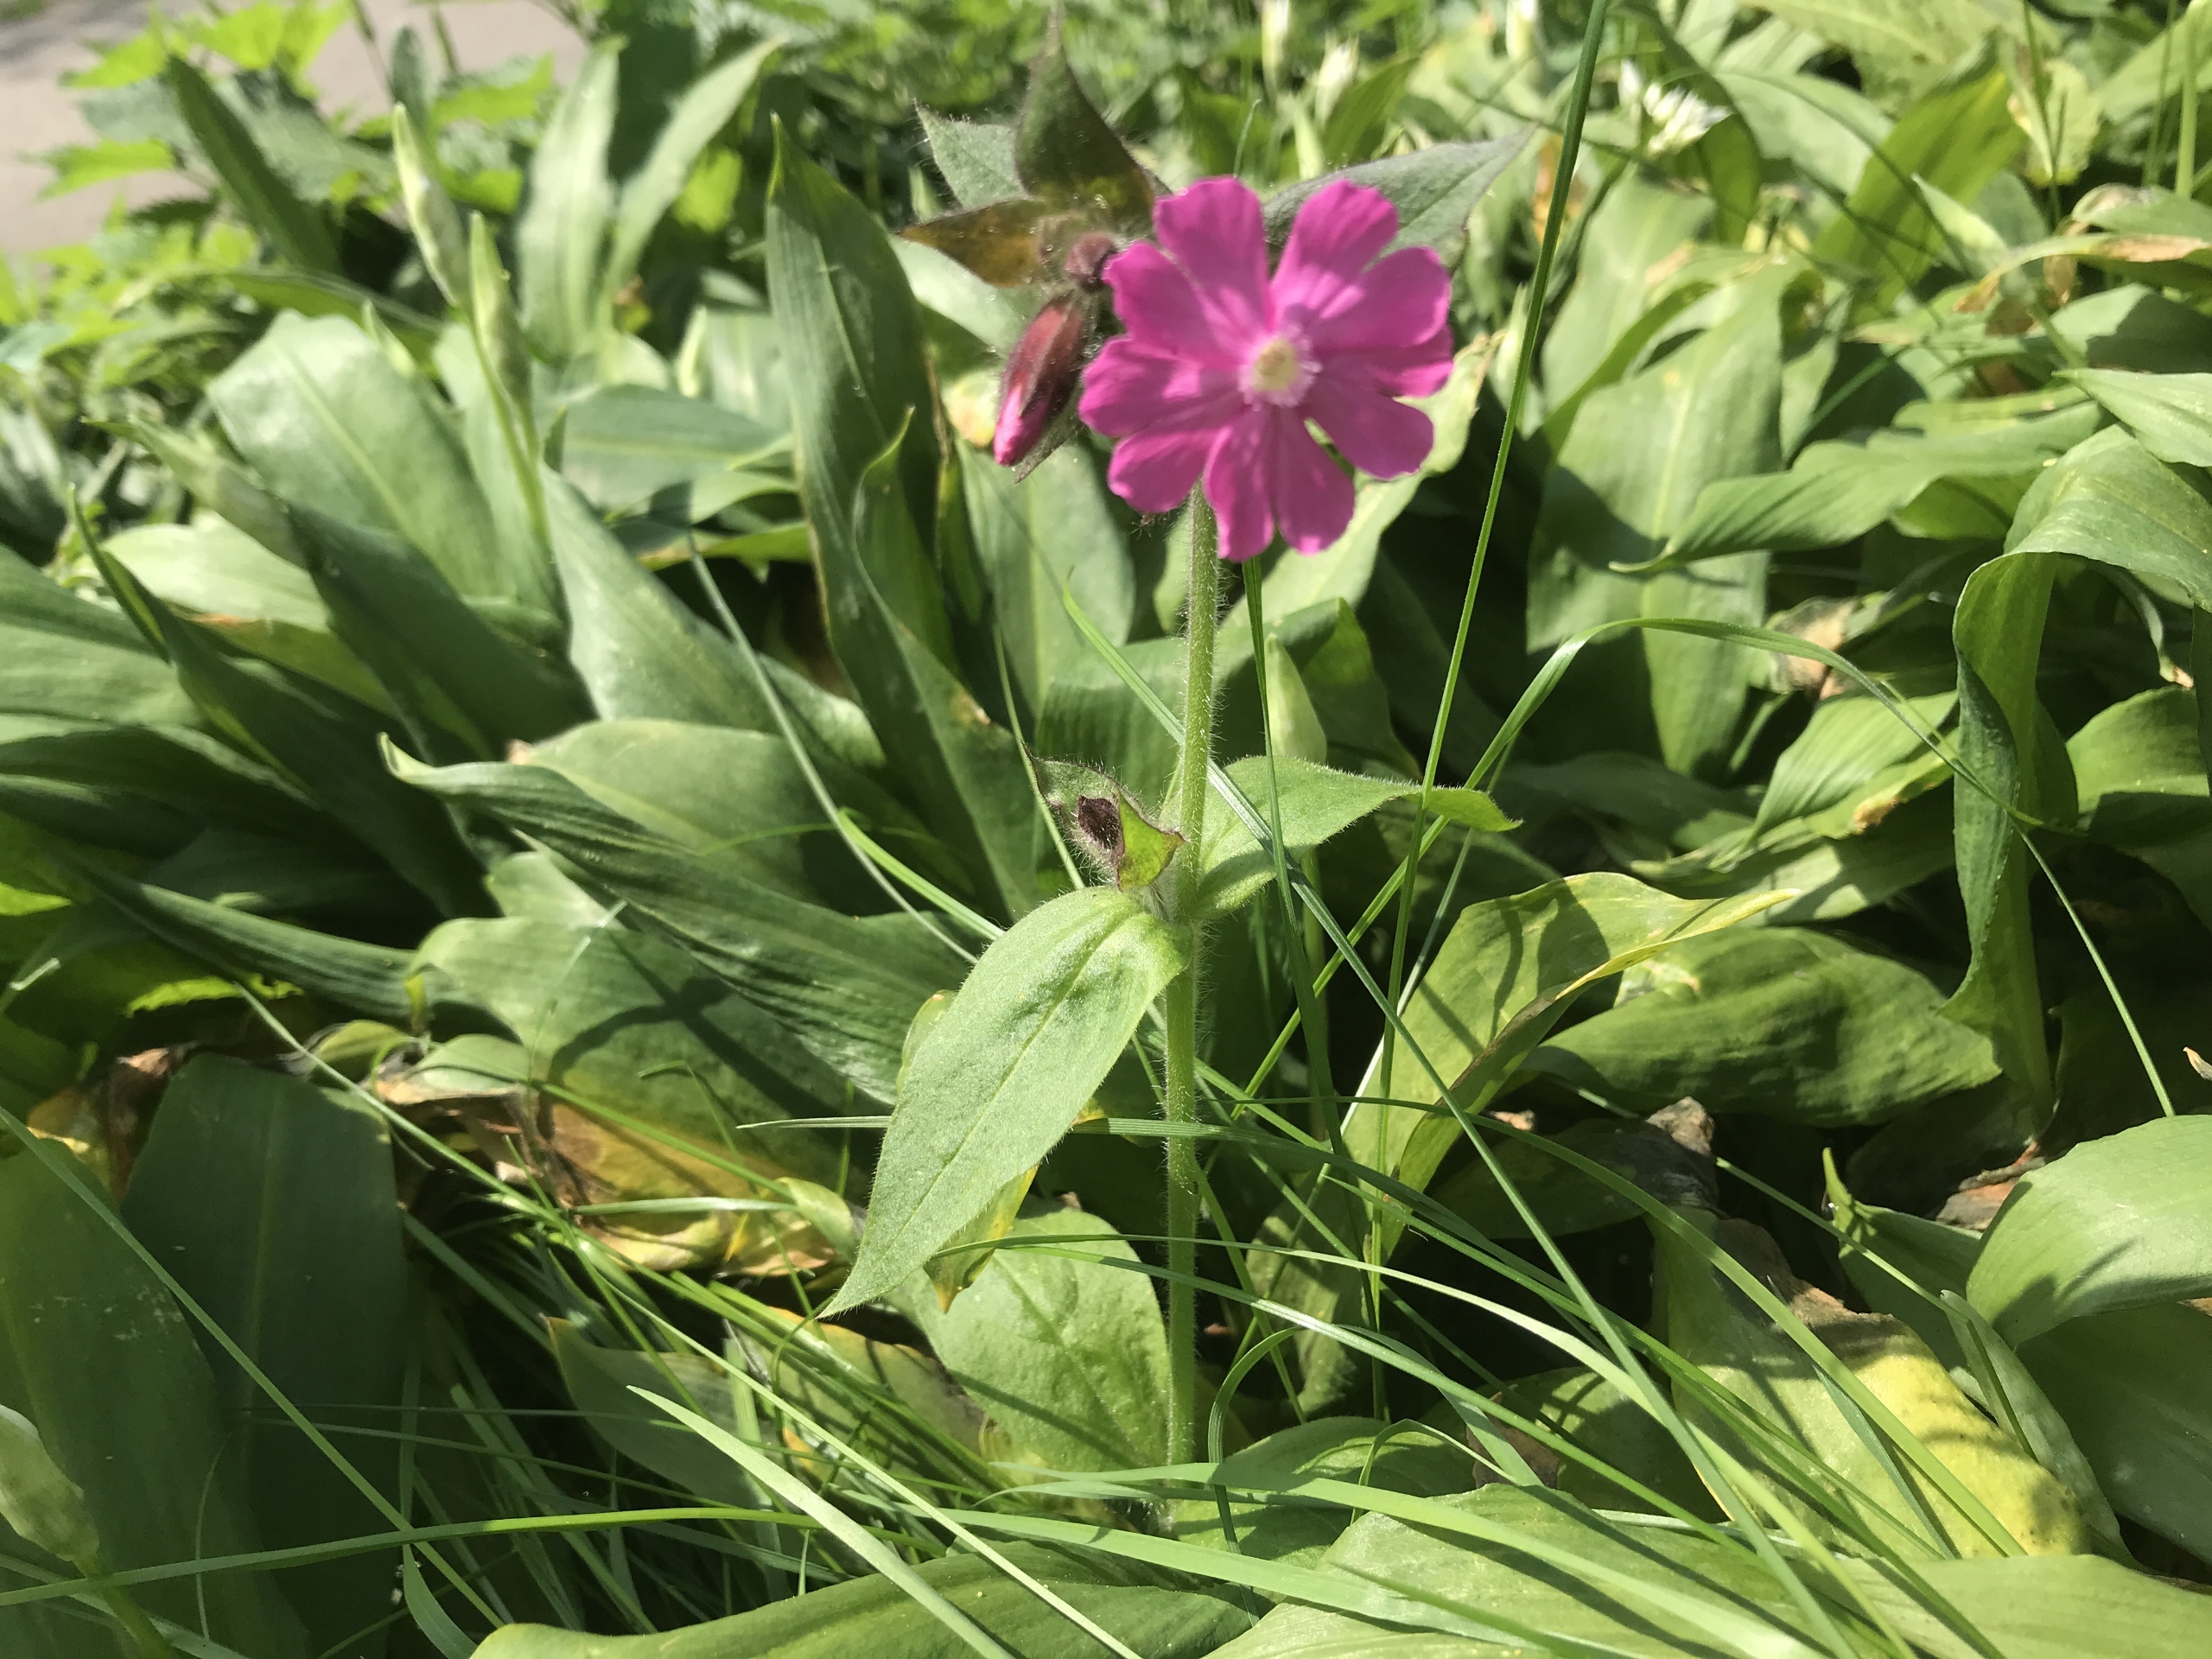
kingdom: Plantae
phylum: Tracheophyta
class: Magnoliopsida
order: Caryophyllales
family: Caryophyllaceae
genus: Silene
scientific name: Silene dioica
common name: Dagpragtstjerne
